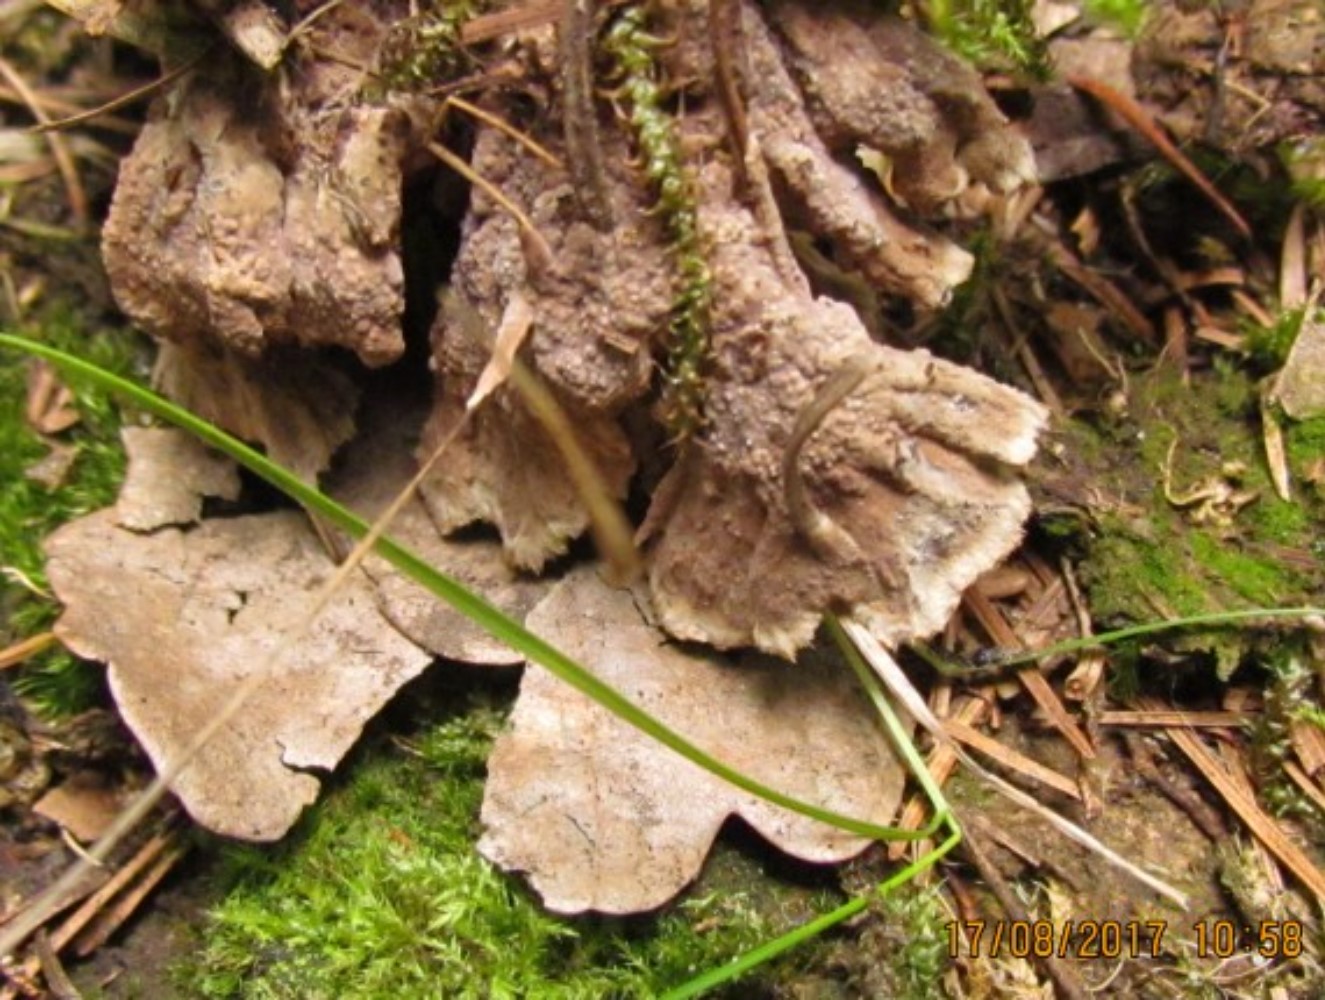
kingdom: Fungi
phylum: Basidiomycota
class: Agaricomycetes
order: Thelephorales
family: Thelephoraceae
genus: Thelephora
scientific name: Thelephora terrestris
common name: fliget frynsesvamp
